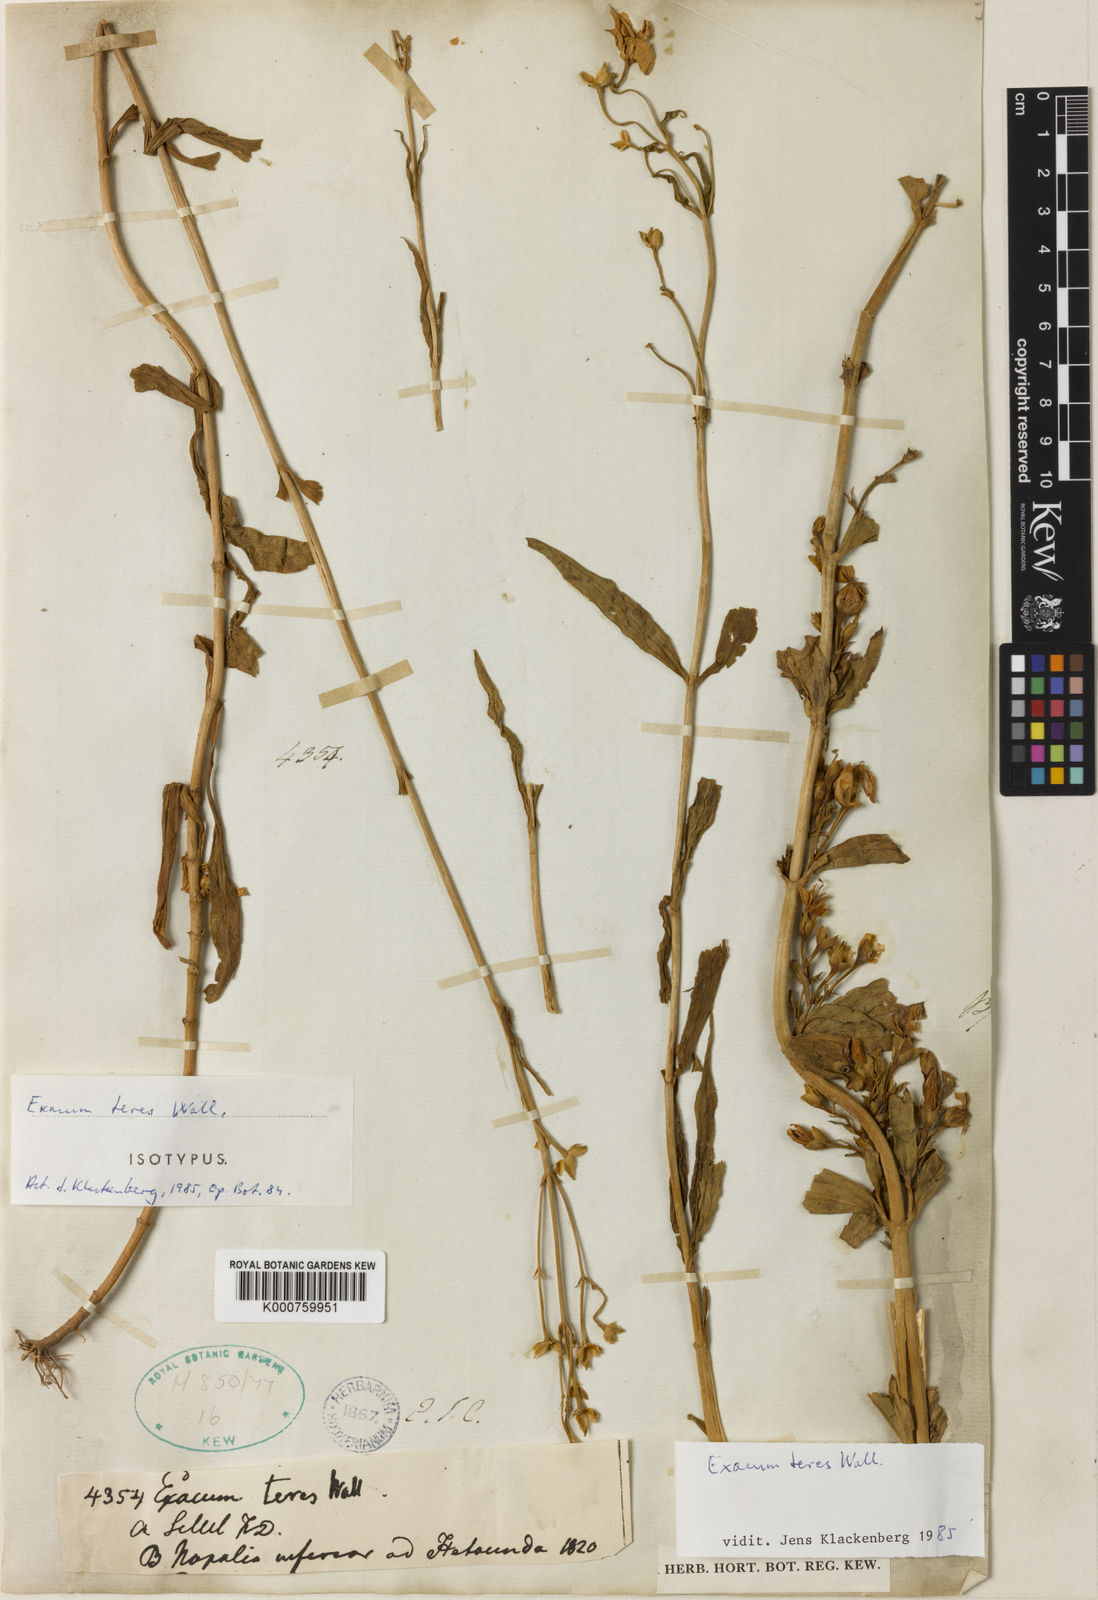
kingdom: Plantae
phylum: Tracheophyta
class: Magnoliopsida
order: Gentianales
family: Gentianaceae
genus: Exacum
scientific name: Exacum teres
